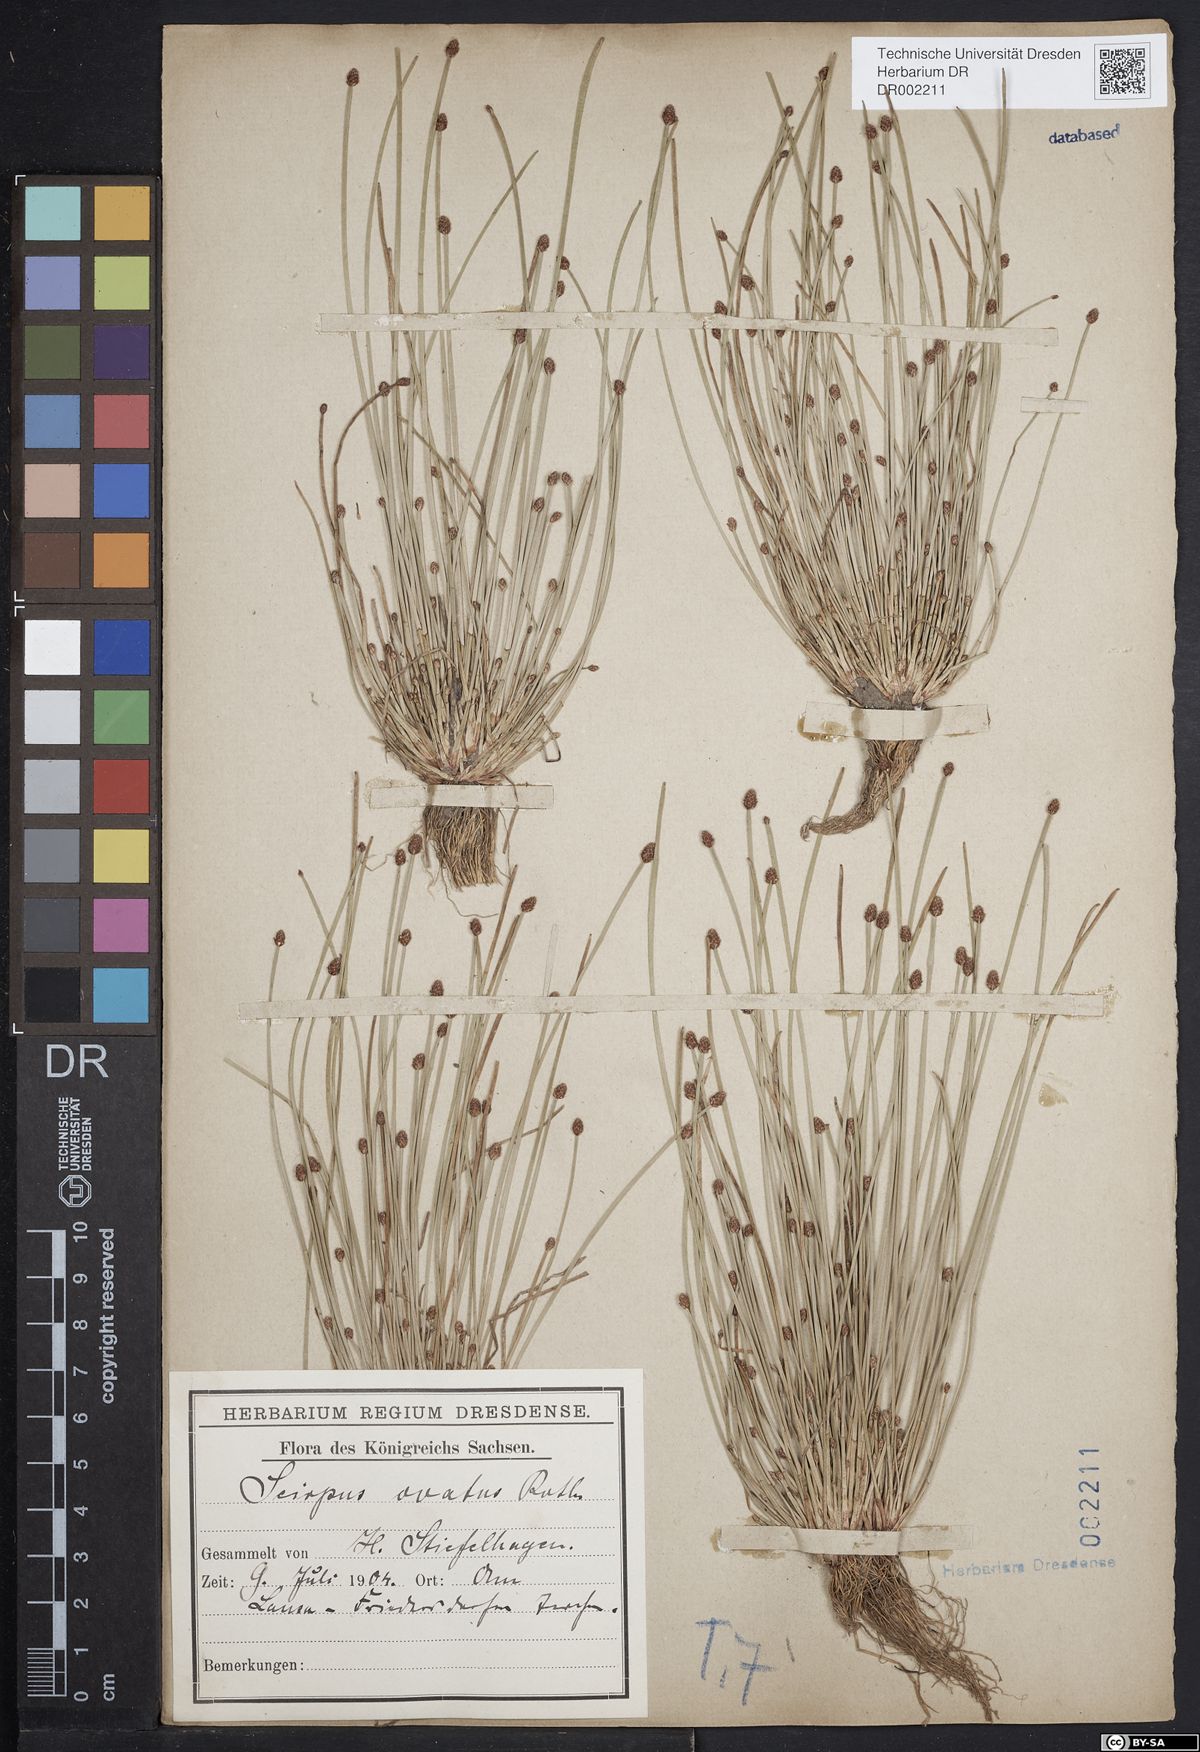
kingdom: Plantae
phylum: Tracheophyta
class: Liliopsida
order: Poales
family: Cyperaceae
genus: Eleocharis
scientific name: Eleocharis ovata
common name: Oval spike-rush
